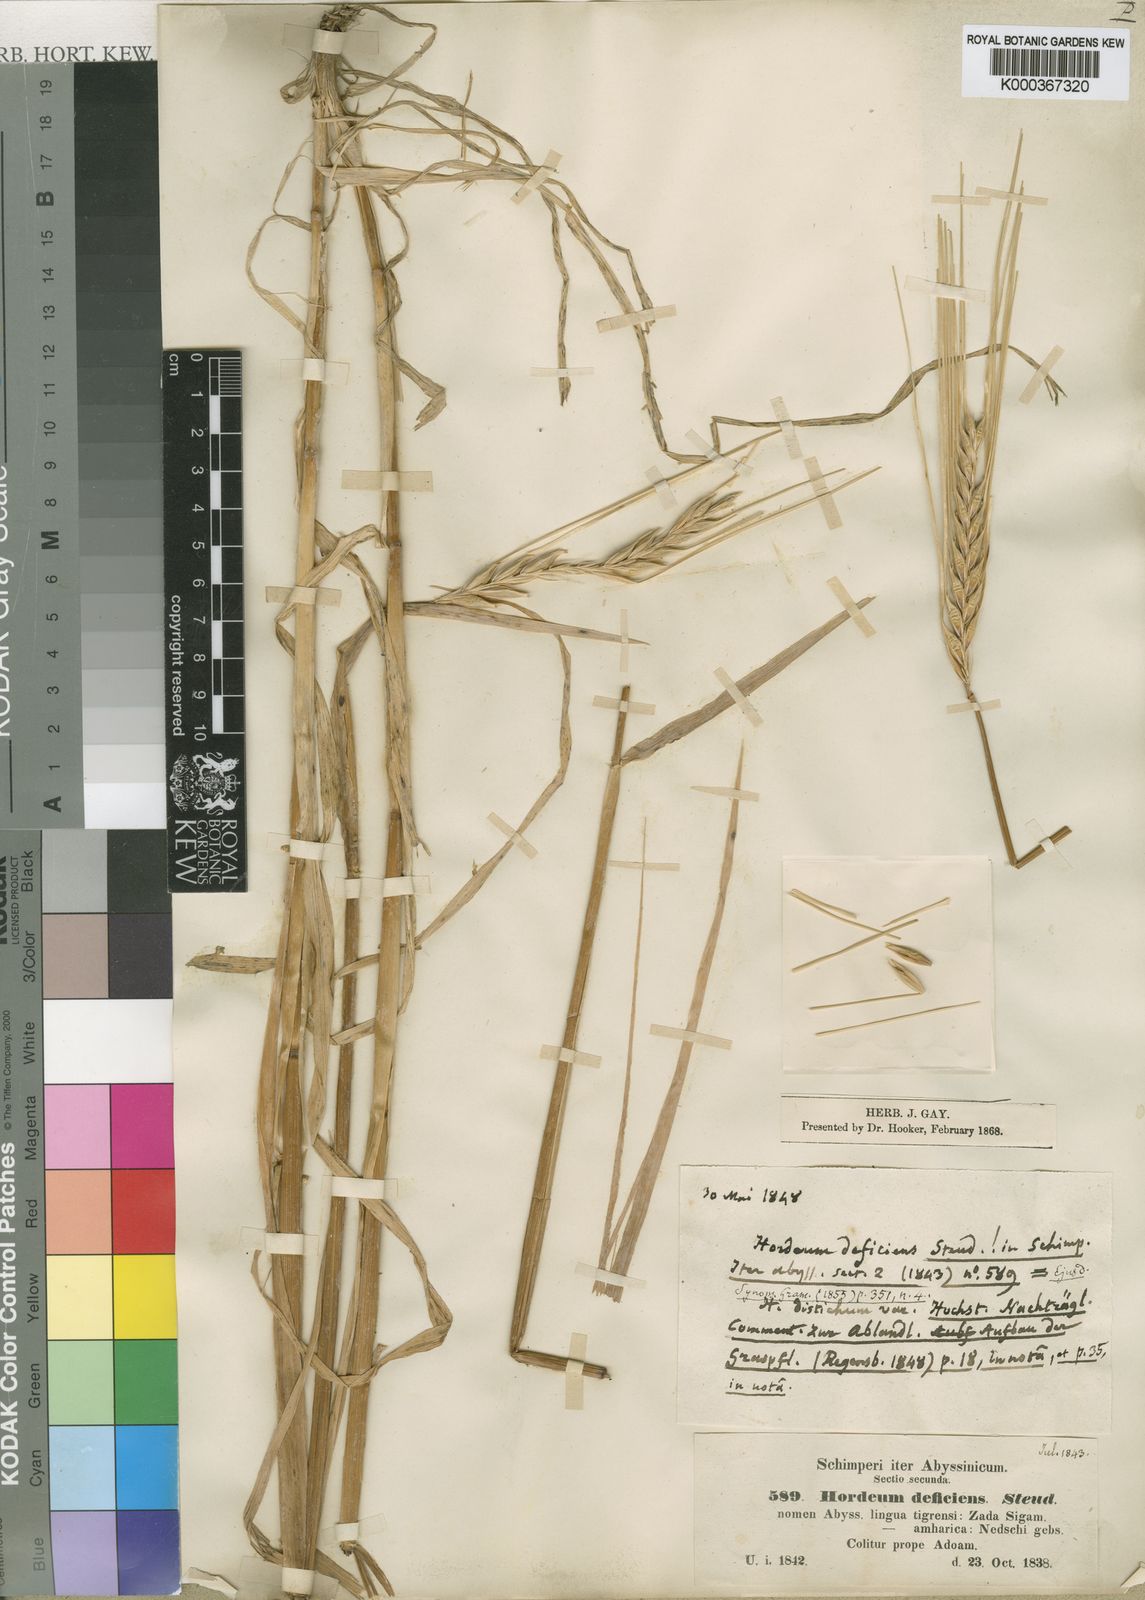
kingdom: Plantae
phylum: Tracheophyta
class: Liliopsida
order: Poales
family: Poaceae
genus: Hordeum
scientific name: Hordeum vulgare
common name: Common barley
